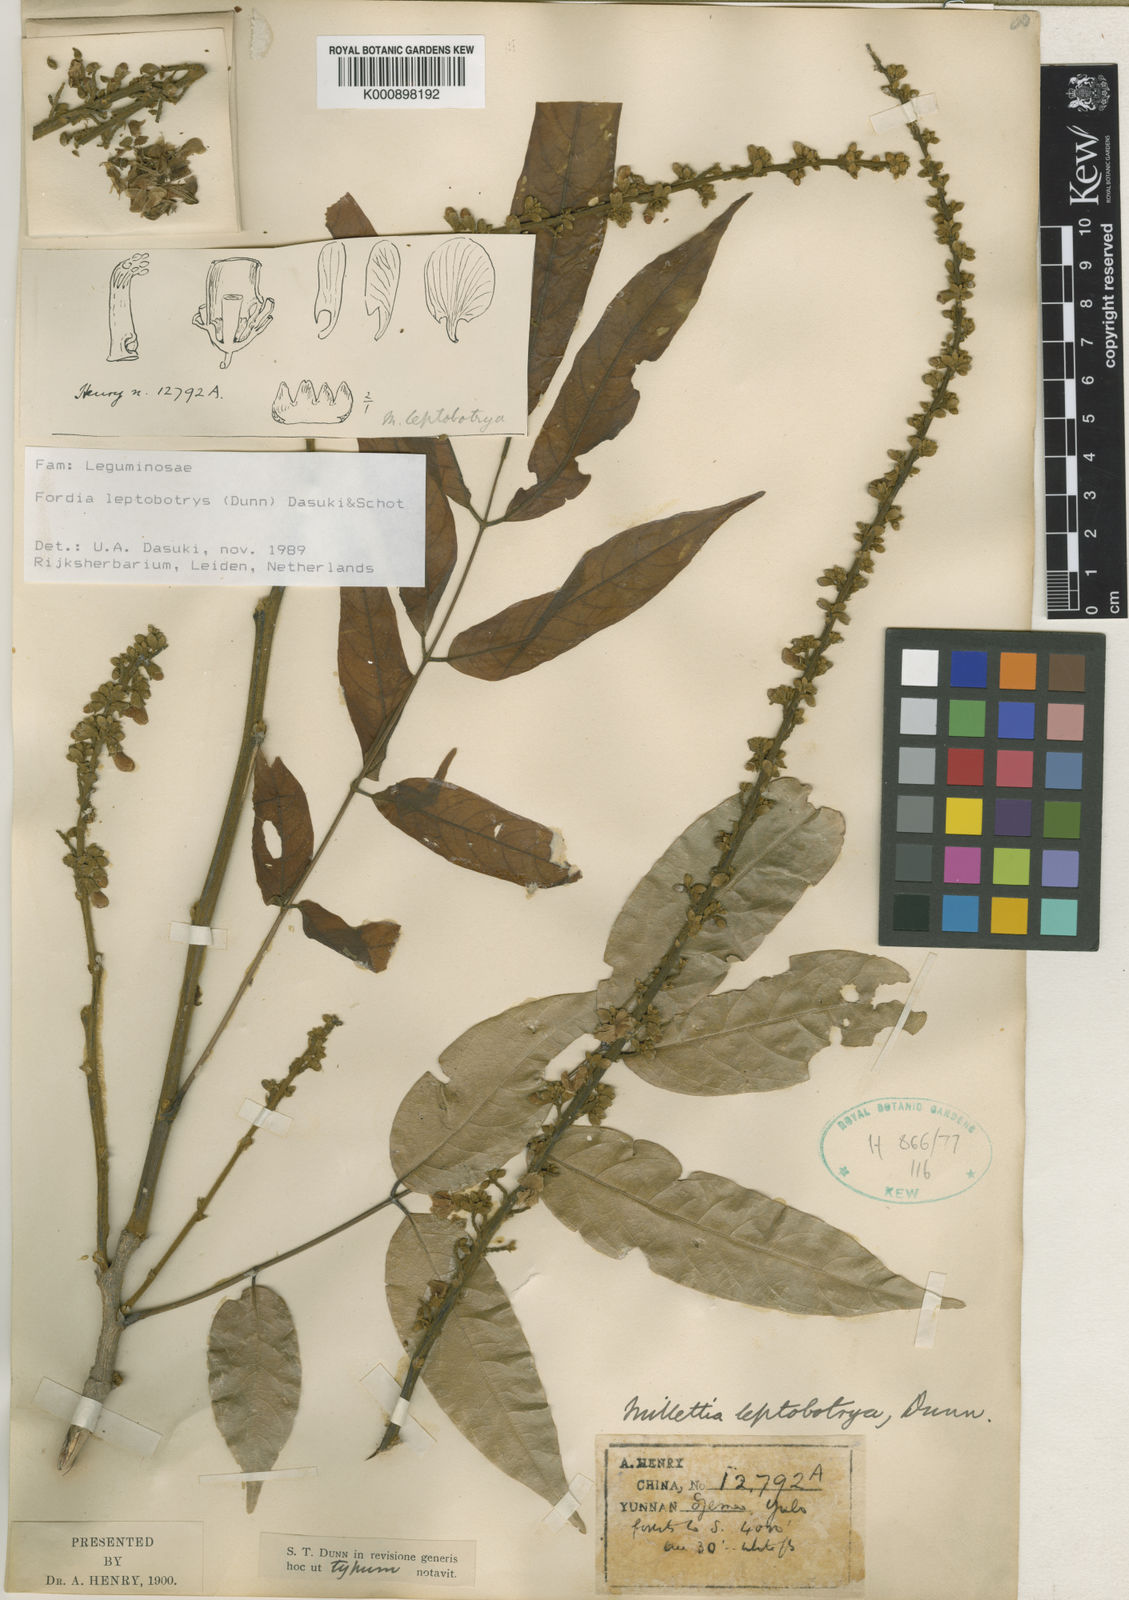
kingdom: Plantae
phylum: Tracheophyta
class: Magnoliopsida
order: Fabales
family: Fabaceae
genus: Fordia
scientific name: Fordia
